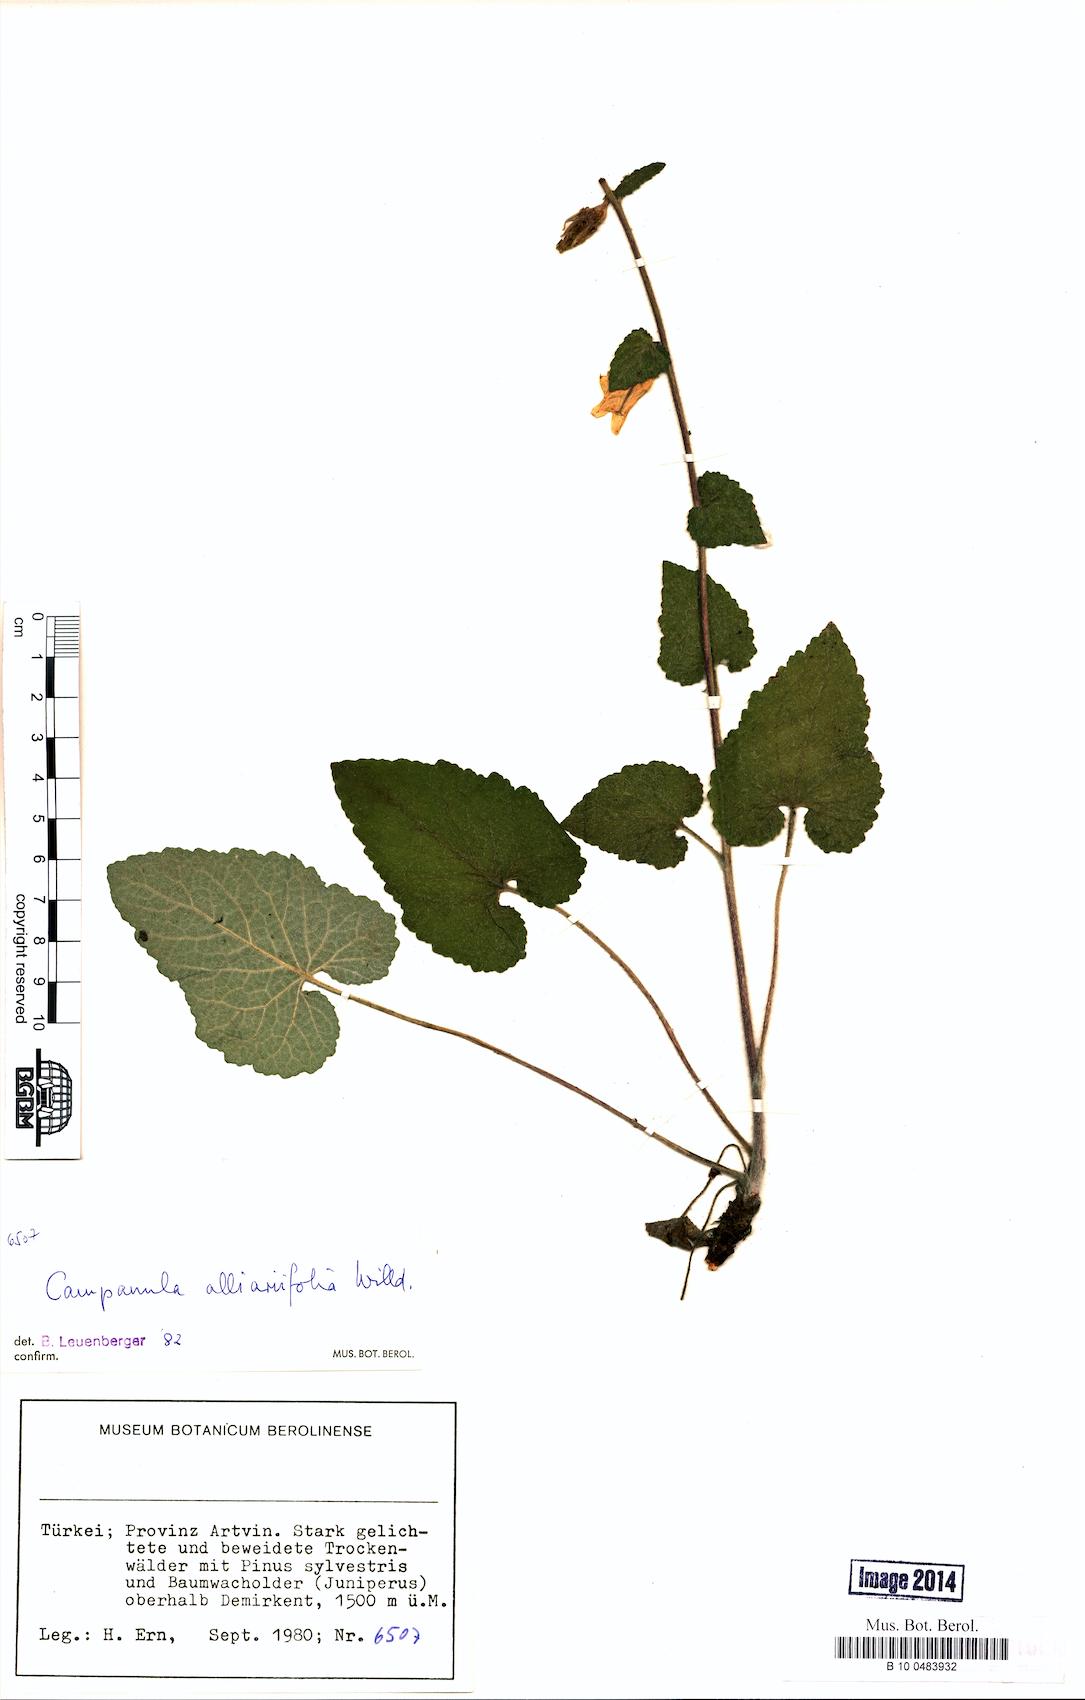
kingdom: Plantae
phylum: Tracheophyta
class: Magnoliopsida
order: Asterales
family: Campanulaceae
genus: Campanula
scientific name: Campanula alliariifolia
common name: Cornish bellflower
